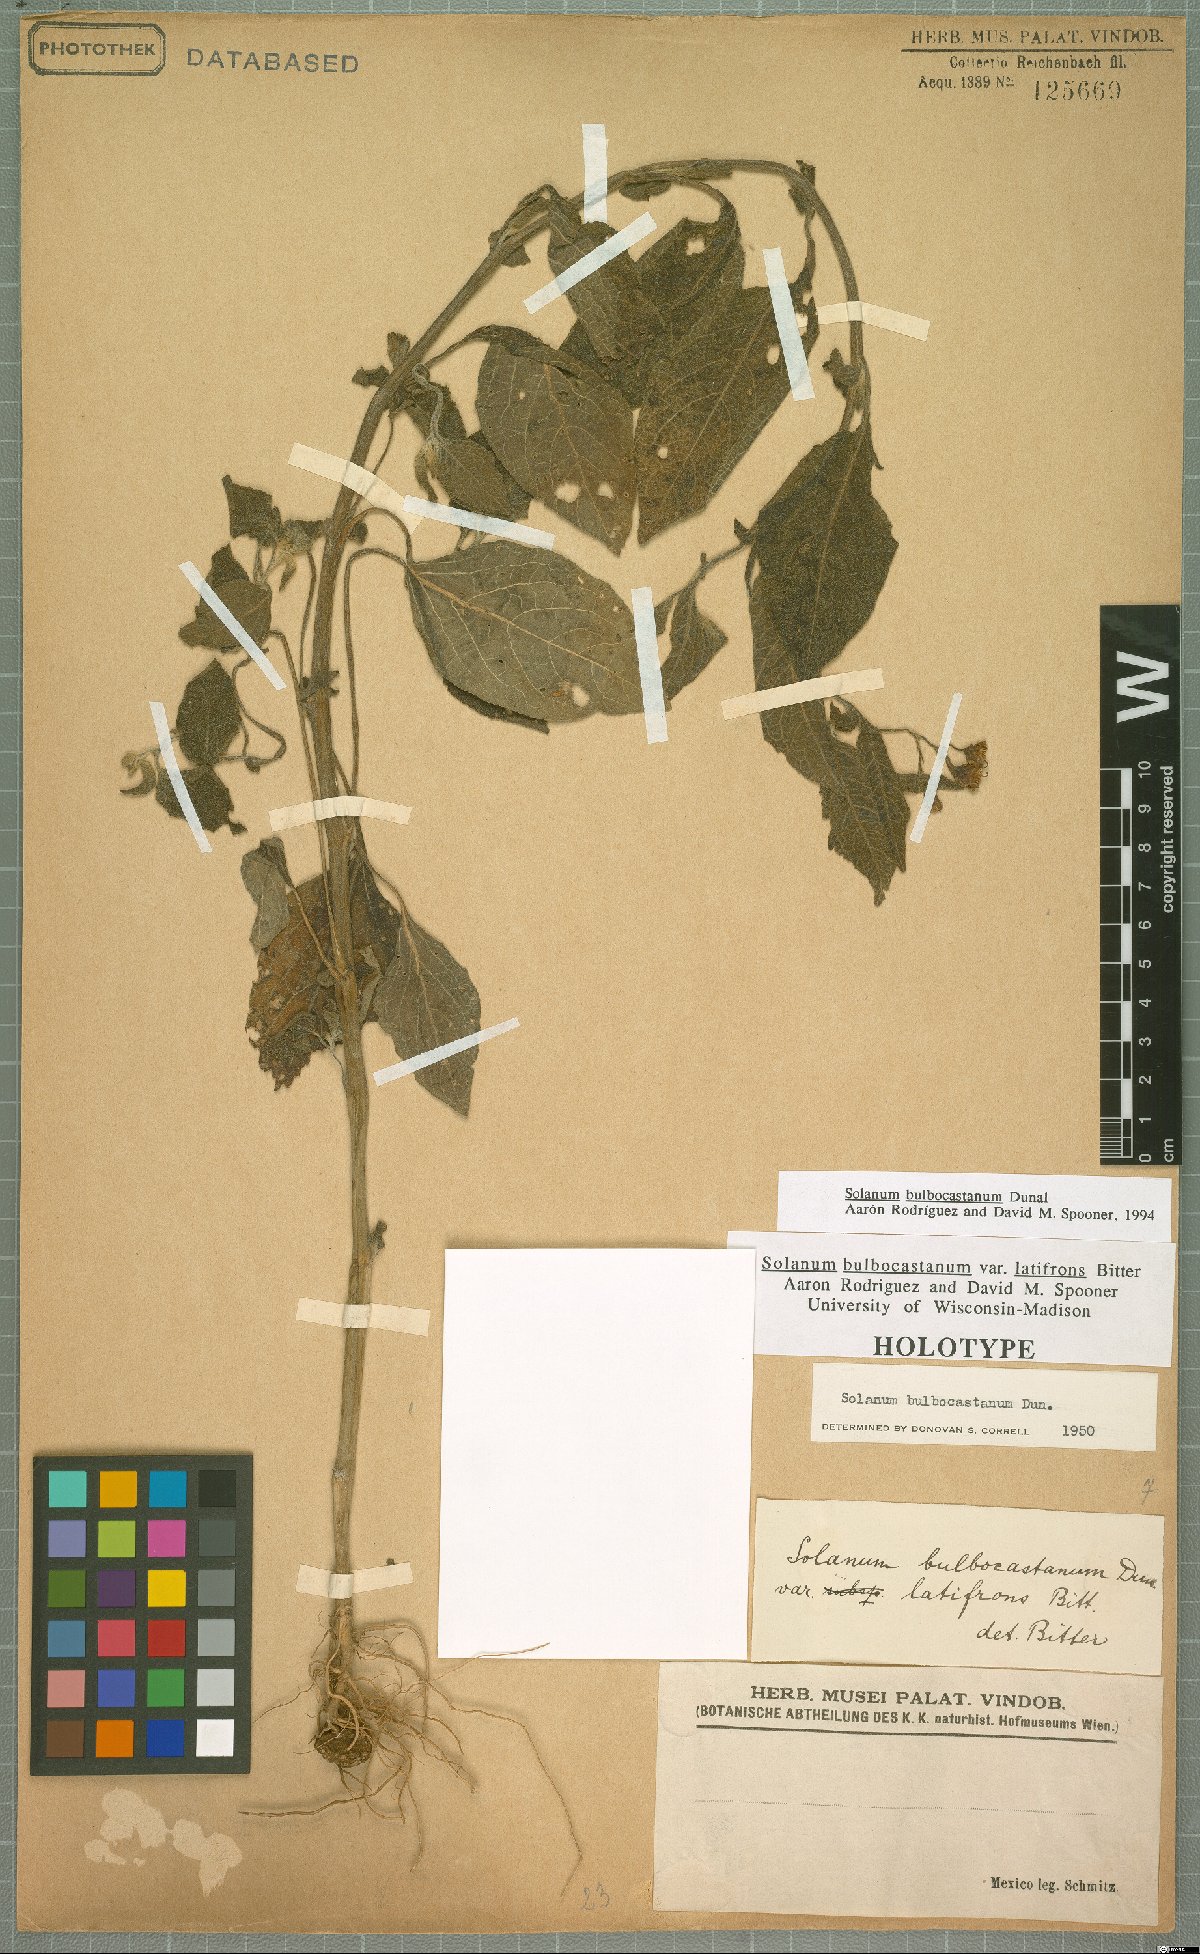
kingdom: Plantae
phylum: Tracheophyta
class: Magnoliopsida
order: Solanales
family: Solanaceae
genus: Solanum
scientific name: Solanum bulbocastanum
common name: Ornamental nightshade
